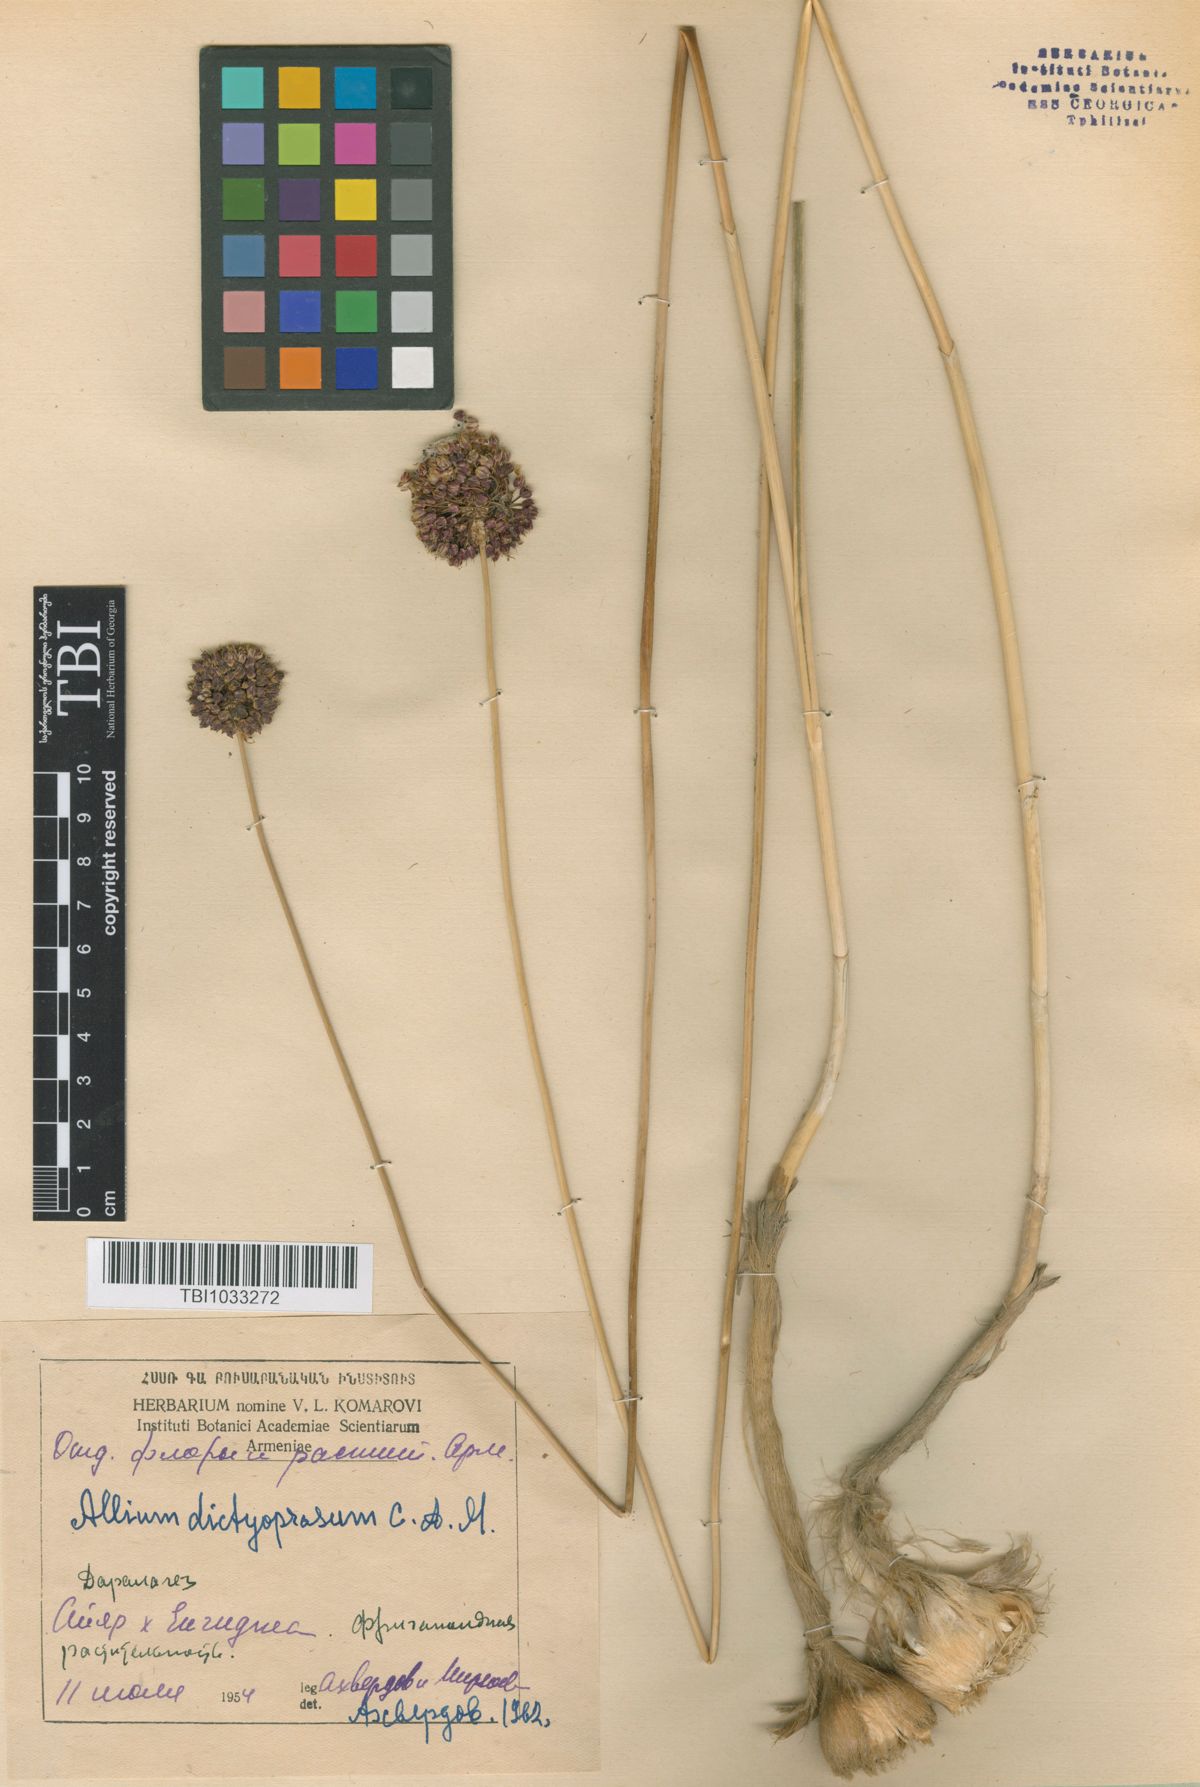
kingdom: Plantae
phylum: Tracheophyta
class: Liliopsida
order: Asparagales
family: Amaryllidaceae
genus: Allium
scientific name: Allium dictyoprasum
